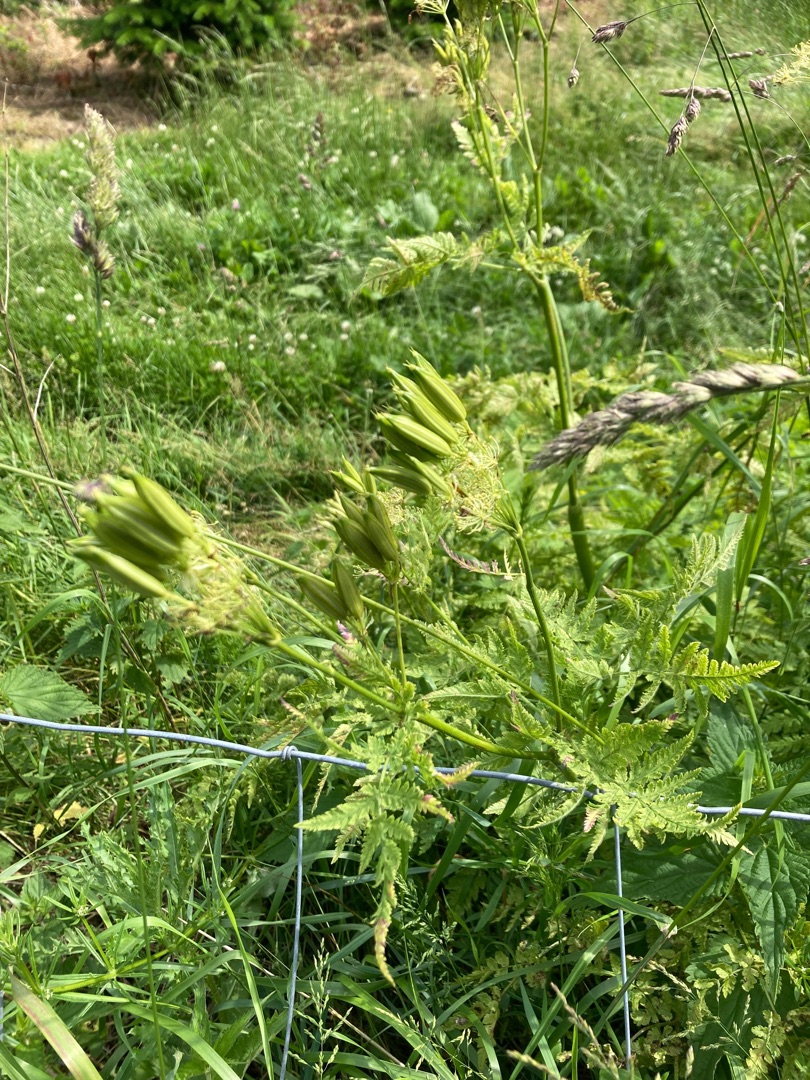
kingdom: Plantae
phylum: Tracheophyta
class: Magnoliopsida
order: Apiales
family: Apiaceae
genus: Myrrhis
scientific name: Myrrhis odorata
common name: Sødskærm
